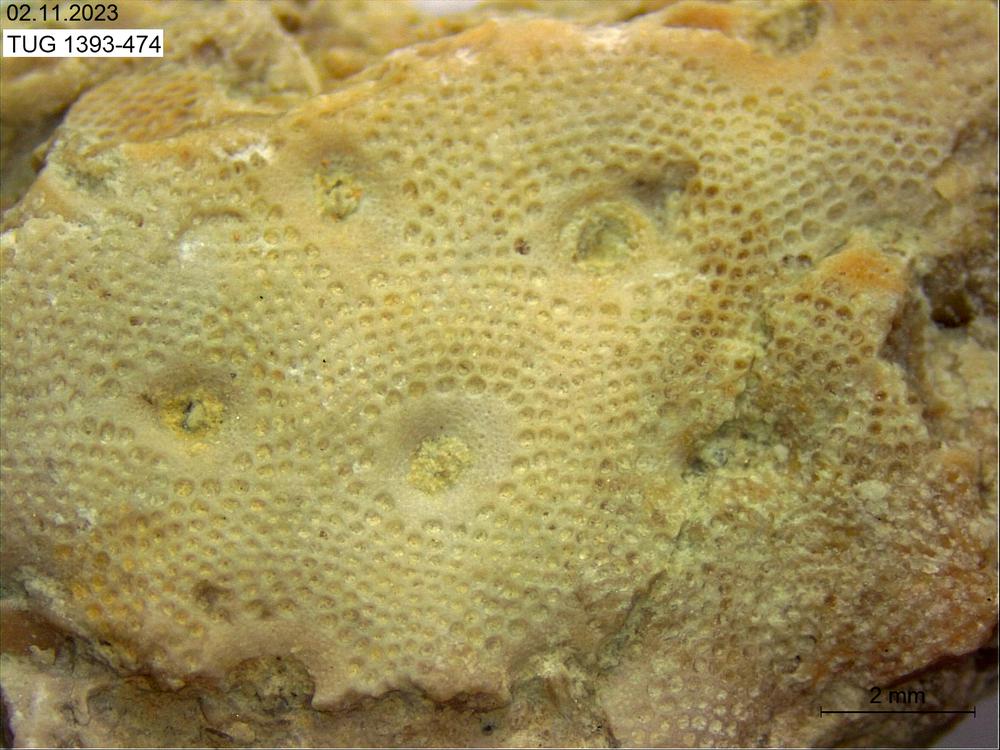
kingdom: Animalia
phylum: Bryozoa
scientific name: Bryozoa
